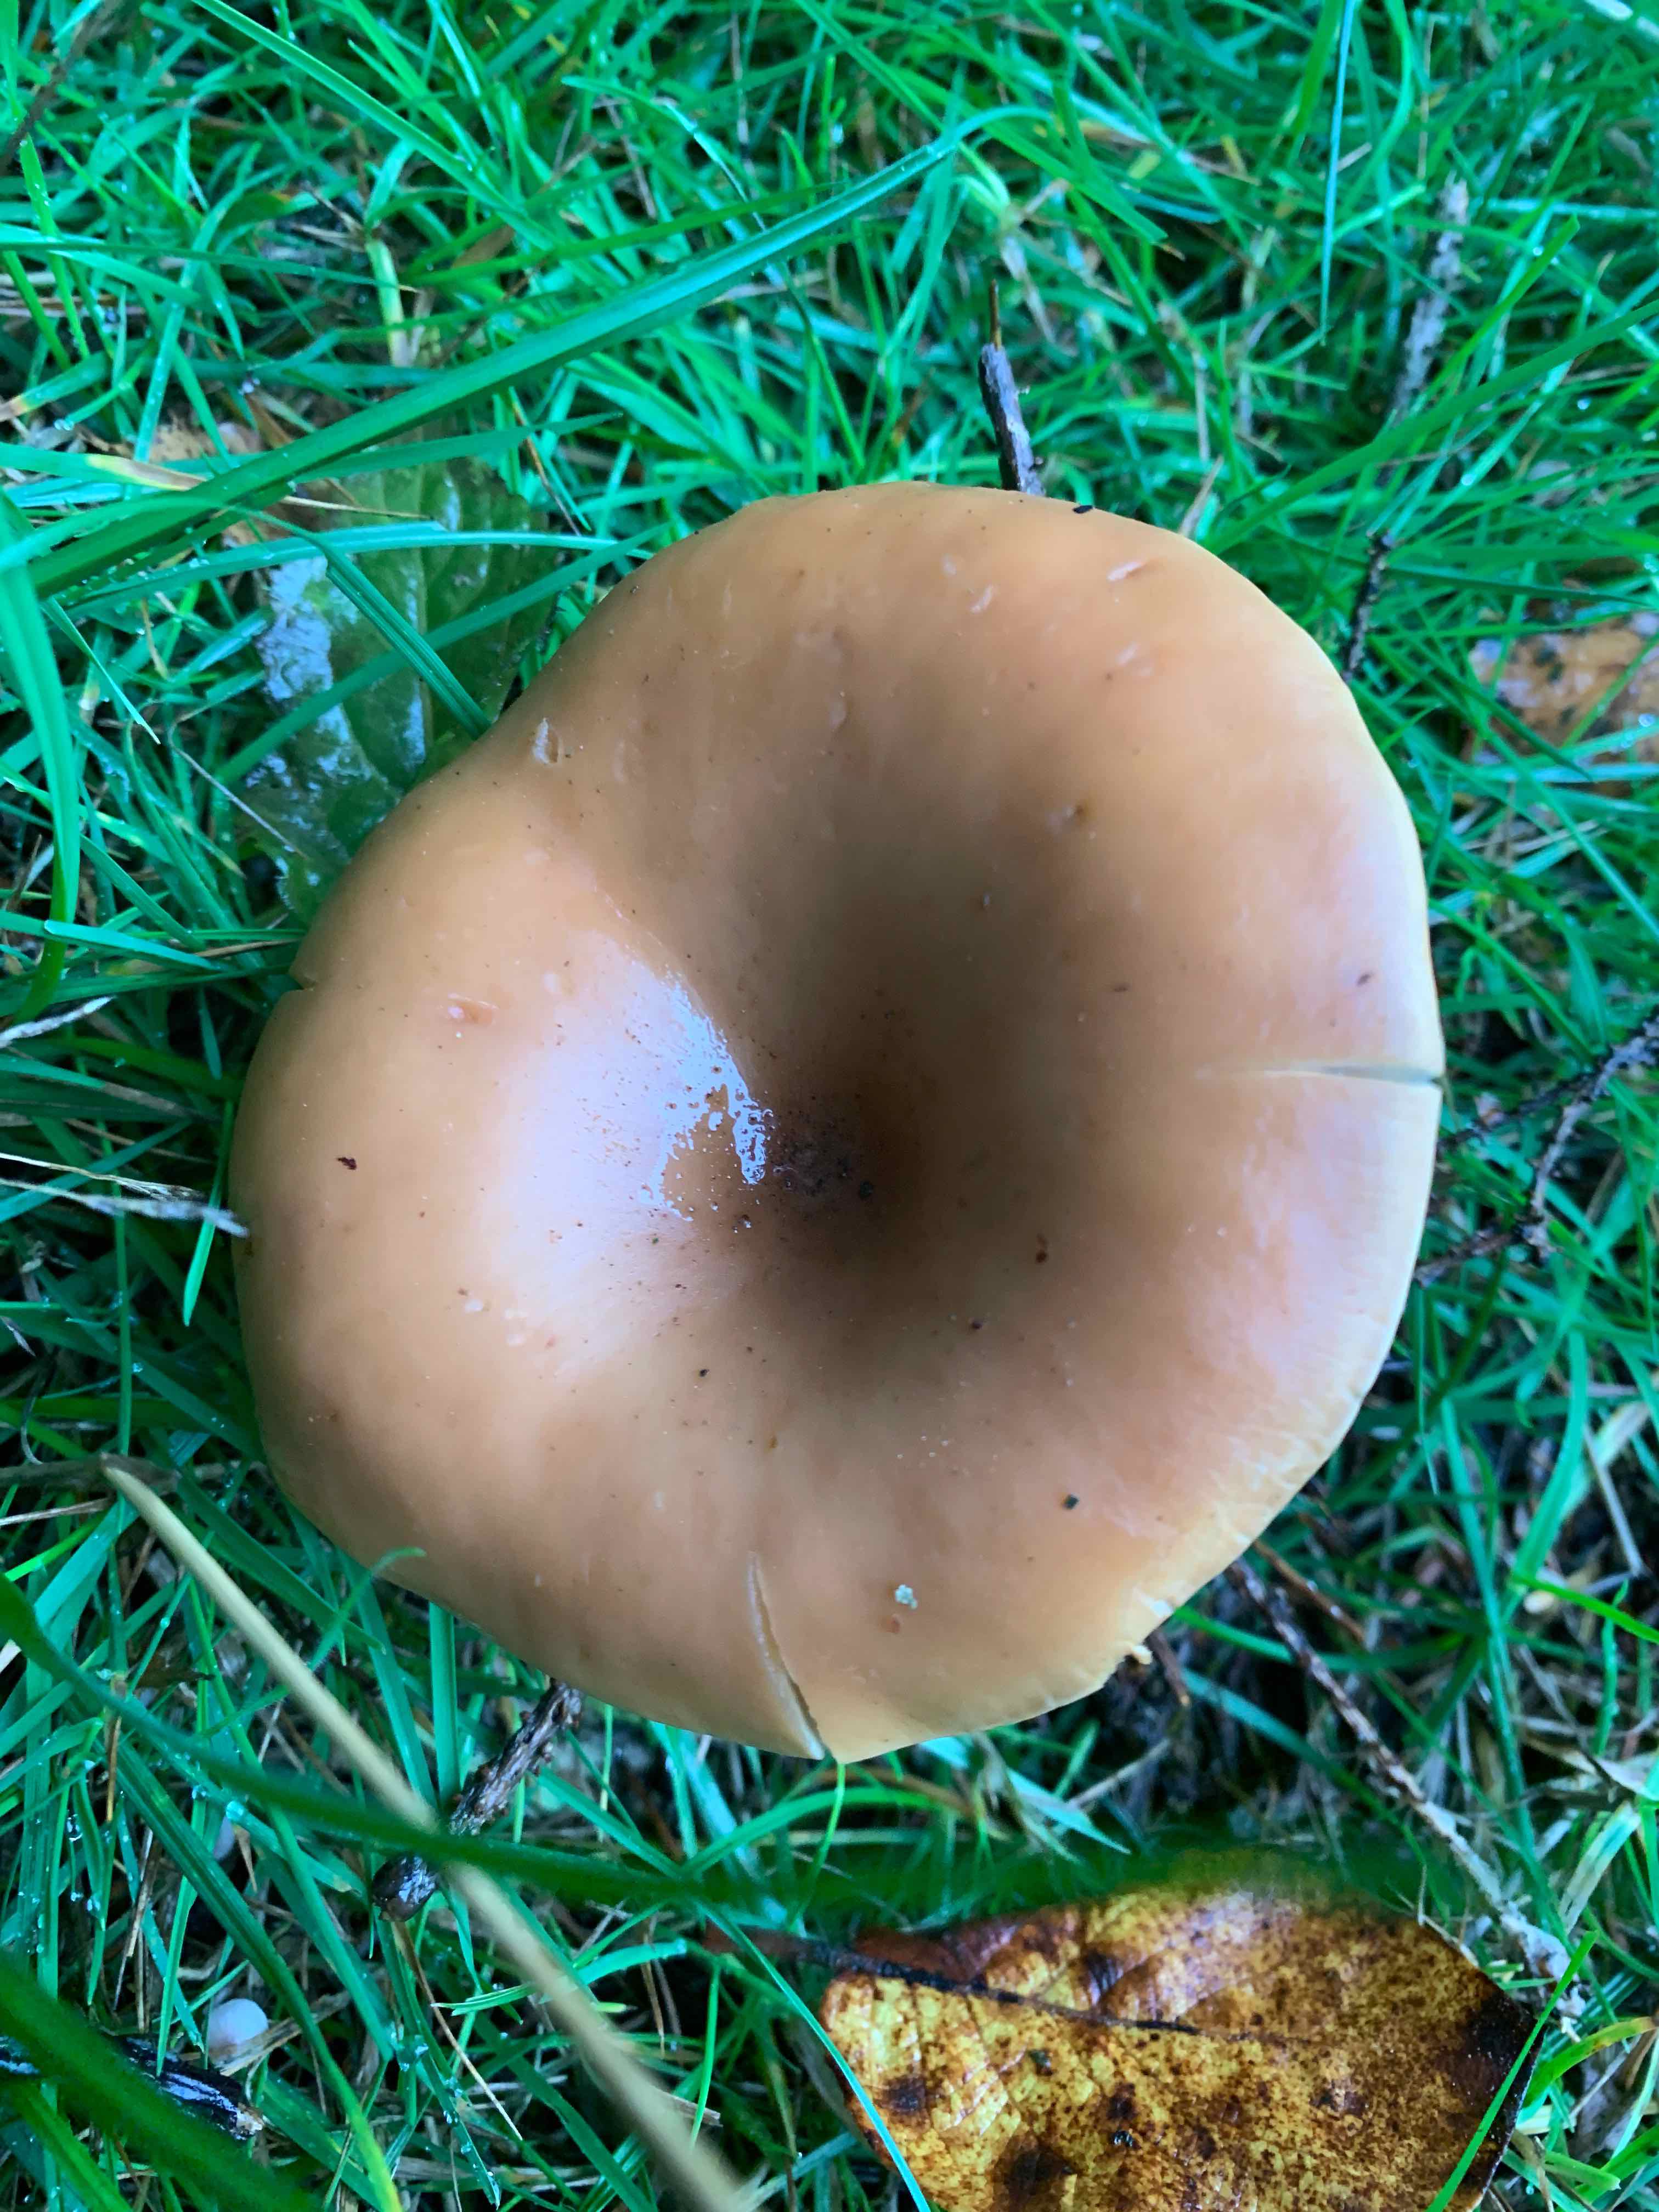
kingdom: Fungi
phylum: Basidiomycota
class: Agaricomycetes
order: Agaricales
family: Tricholomataceae
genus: Paralepista
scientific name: Paralepista flaccida
